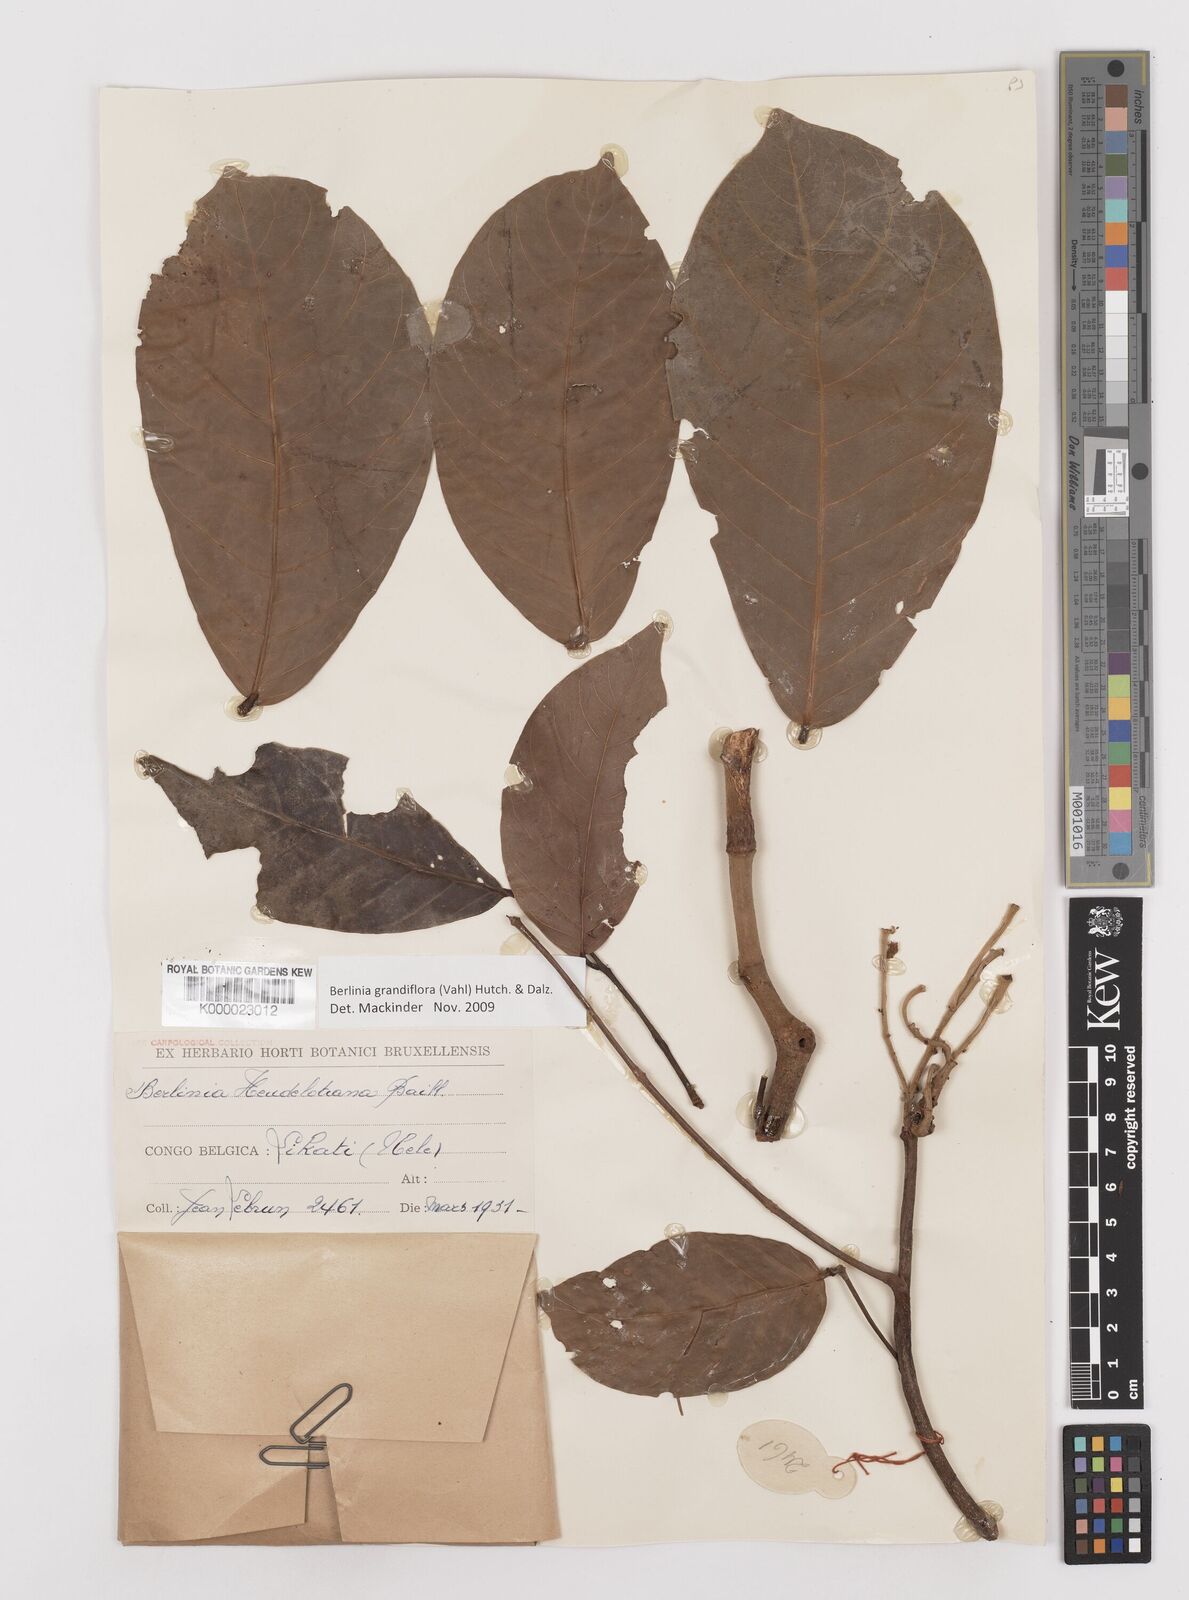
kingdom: Plantae
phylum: Tracheophyta
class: Magnoliopsida
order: Fabales
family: Fabaceae
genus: Berlinia
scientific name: Berlinia grandiflora
